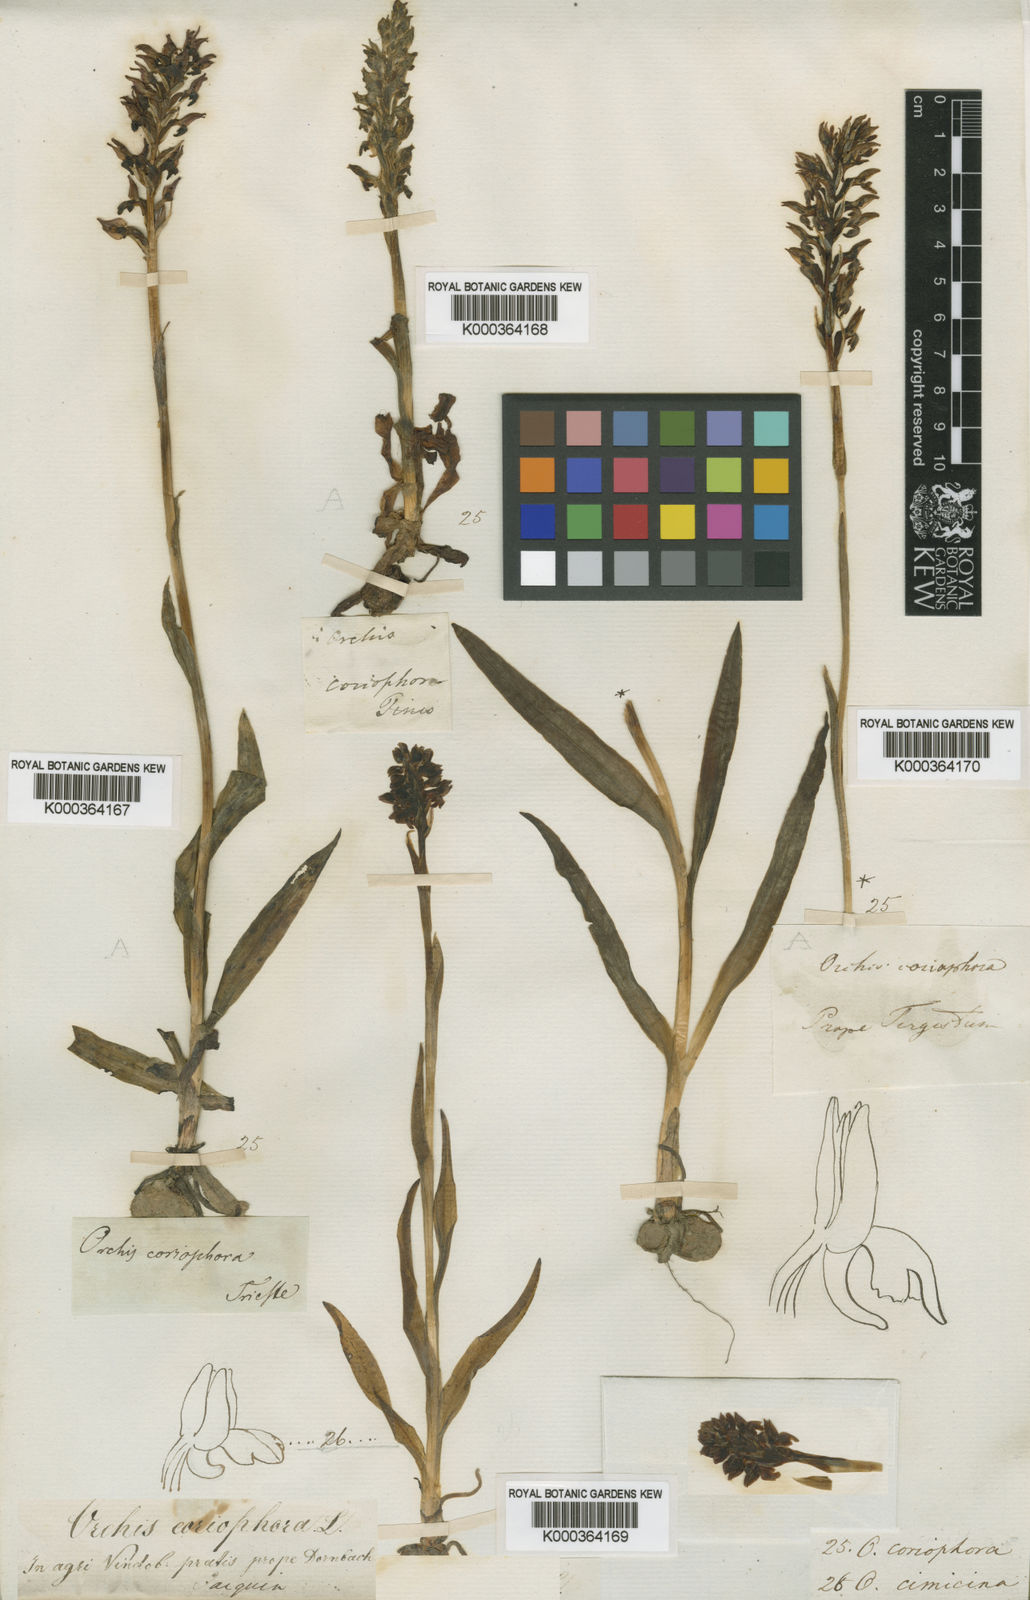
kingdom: Plantae
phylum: Tracheophyta
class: Liliopsida
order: Asparagales
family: Orchidaceae
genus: Anacamptis
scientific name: Anacamptis coriophora
